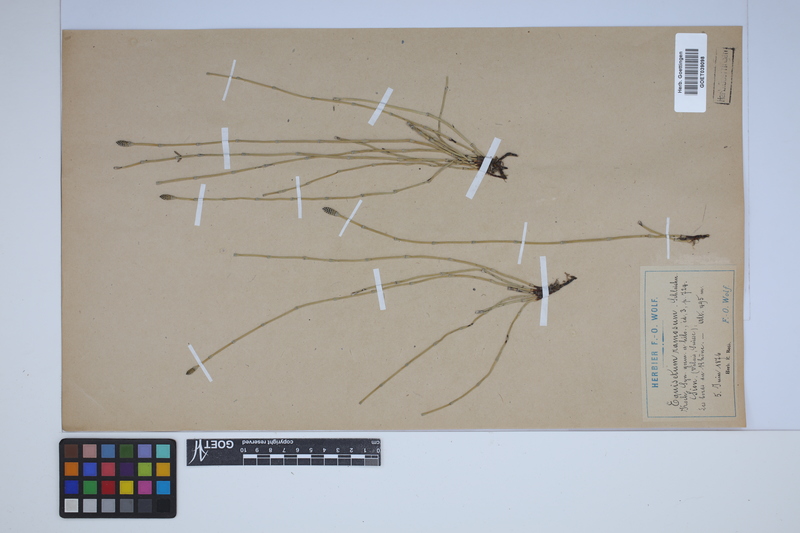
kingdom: Plantae
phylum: Tracheophyta
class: Polypodiopsida
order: Equisetales
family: Equisetaceae
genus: Equisetum
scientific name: Equisetum giganteum
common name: Giant horsetail
